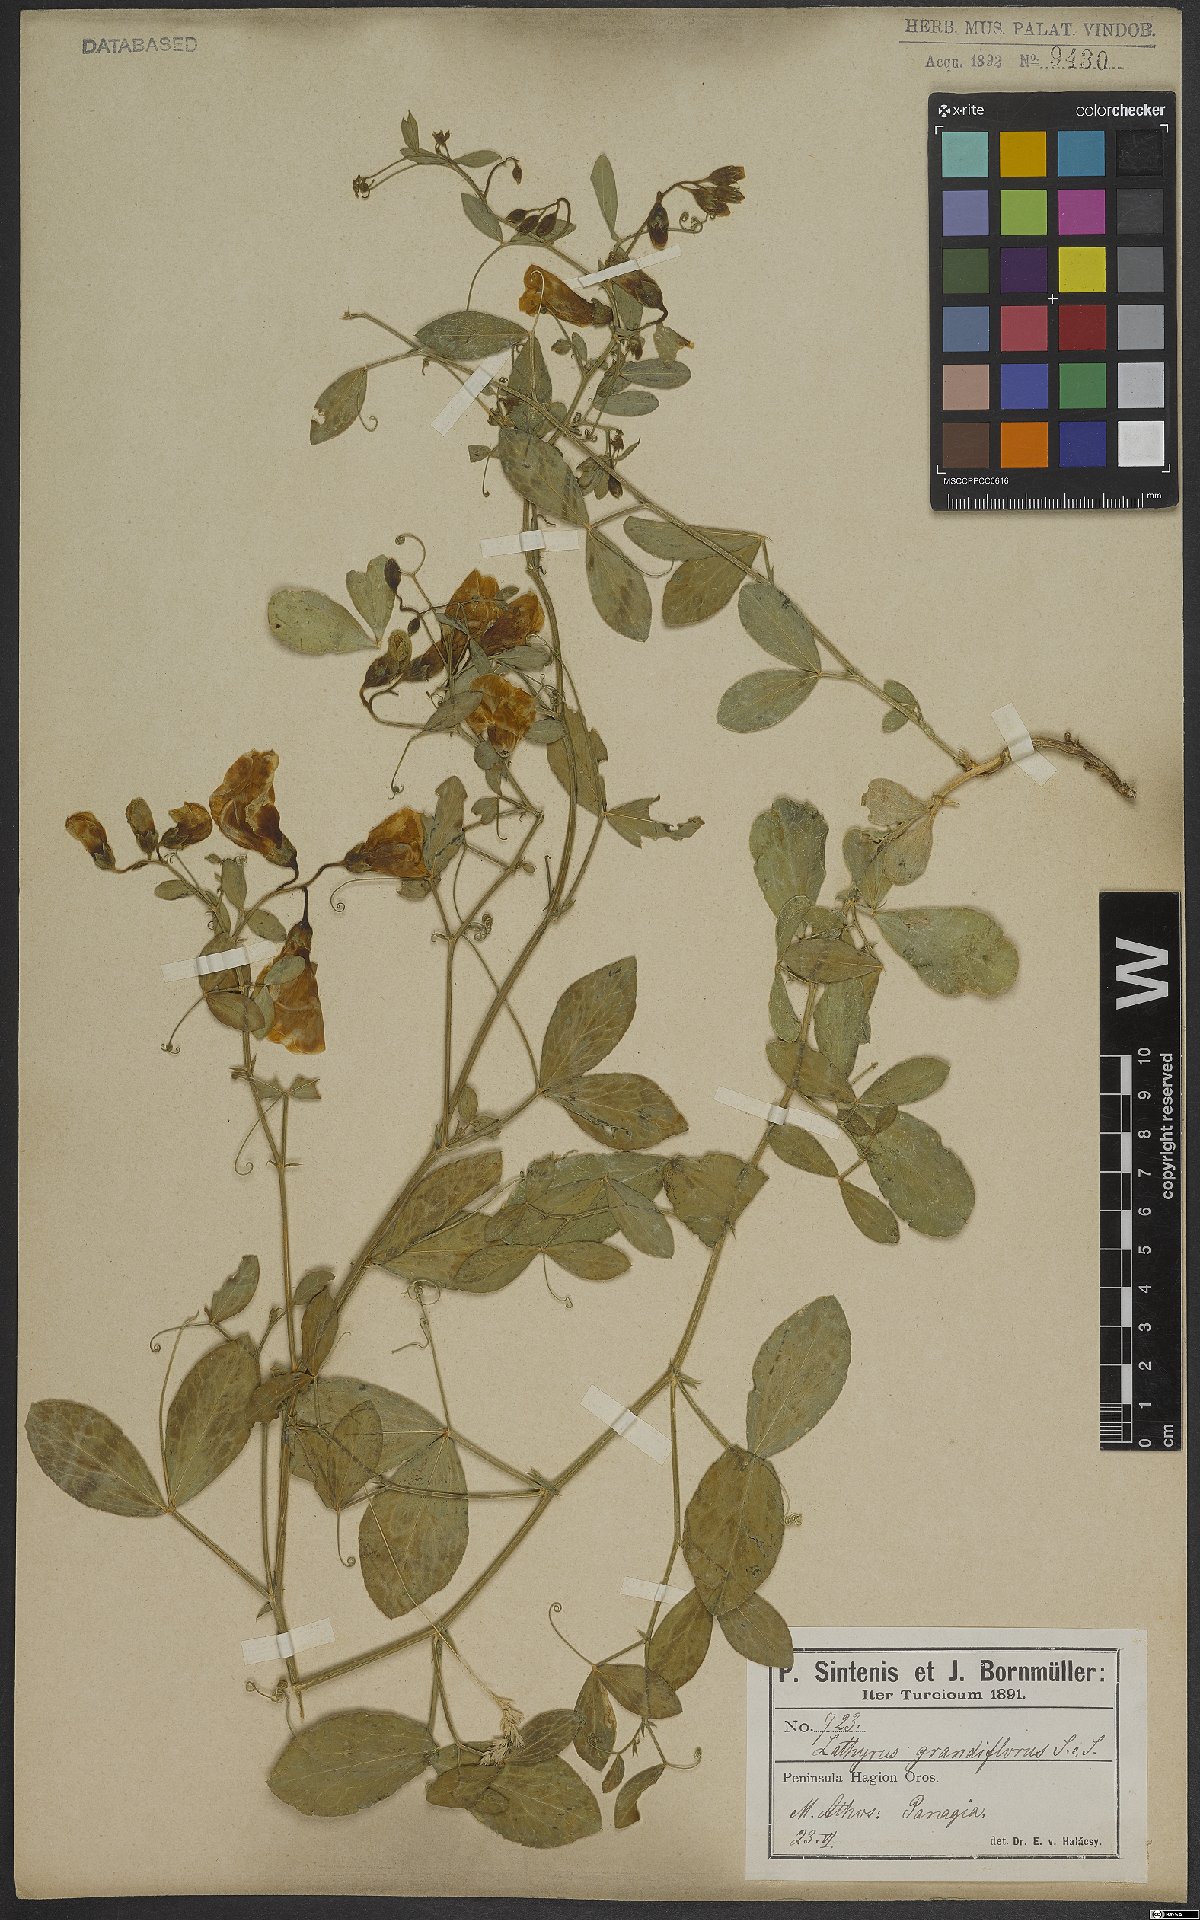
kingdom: Plantae
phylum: Tracheophyta
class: Magnoliopsida
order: Fabales
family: Fabaceae
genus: Lathyrus
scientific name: Lathyrus grandiflorus
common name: Two-flowered everlasting-pea
